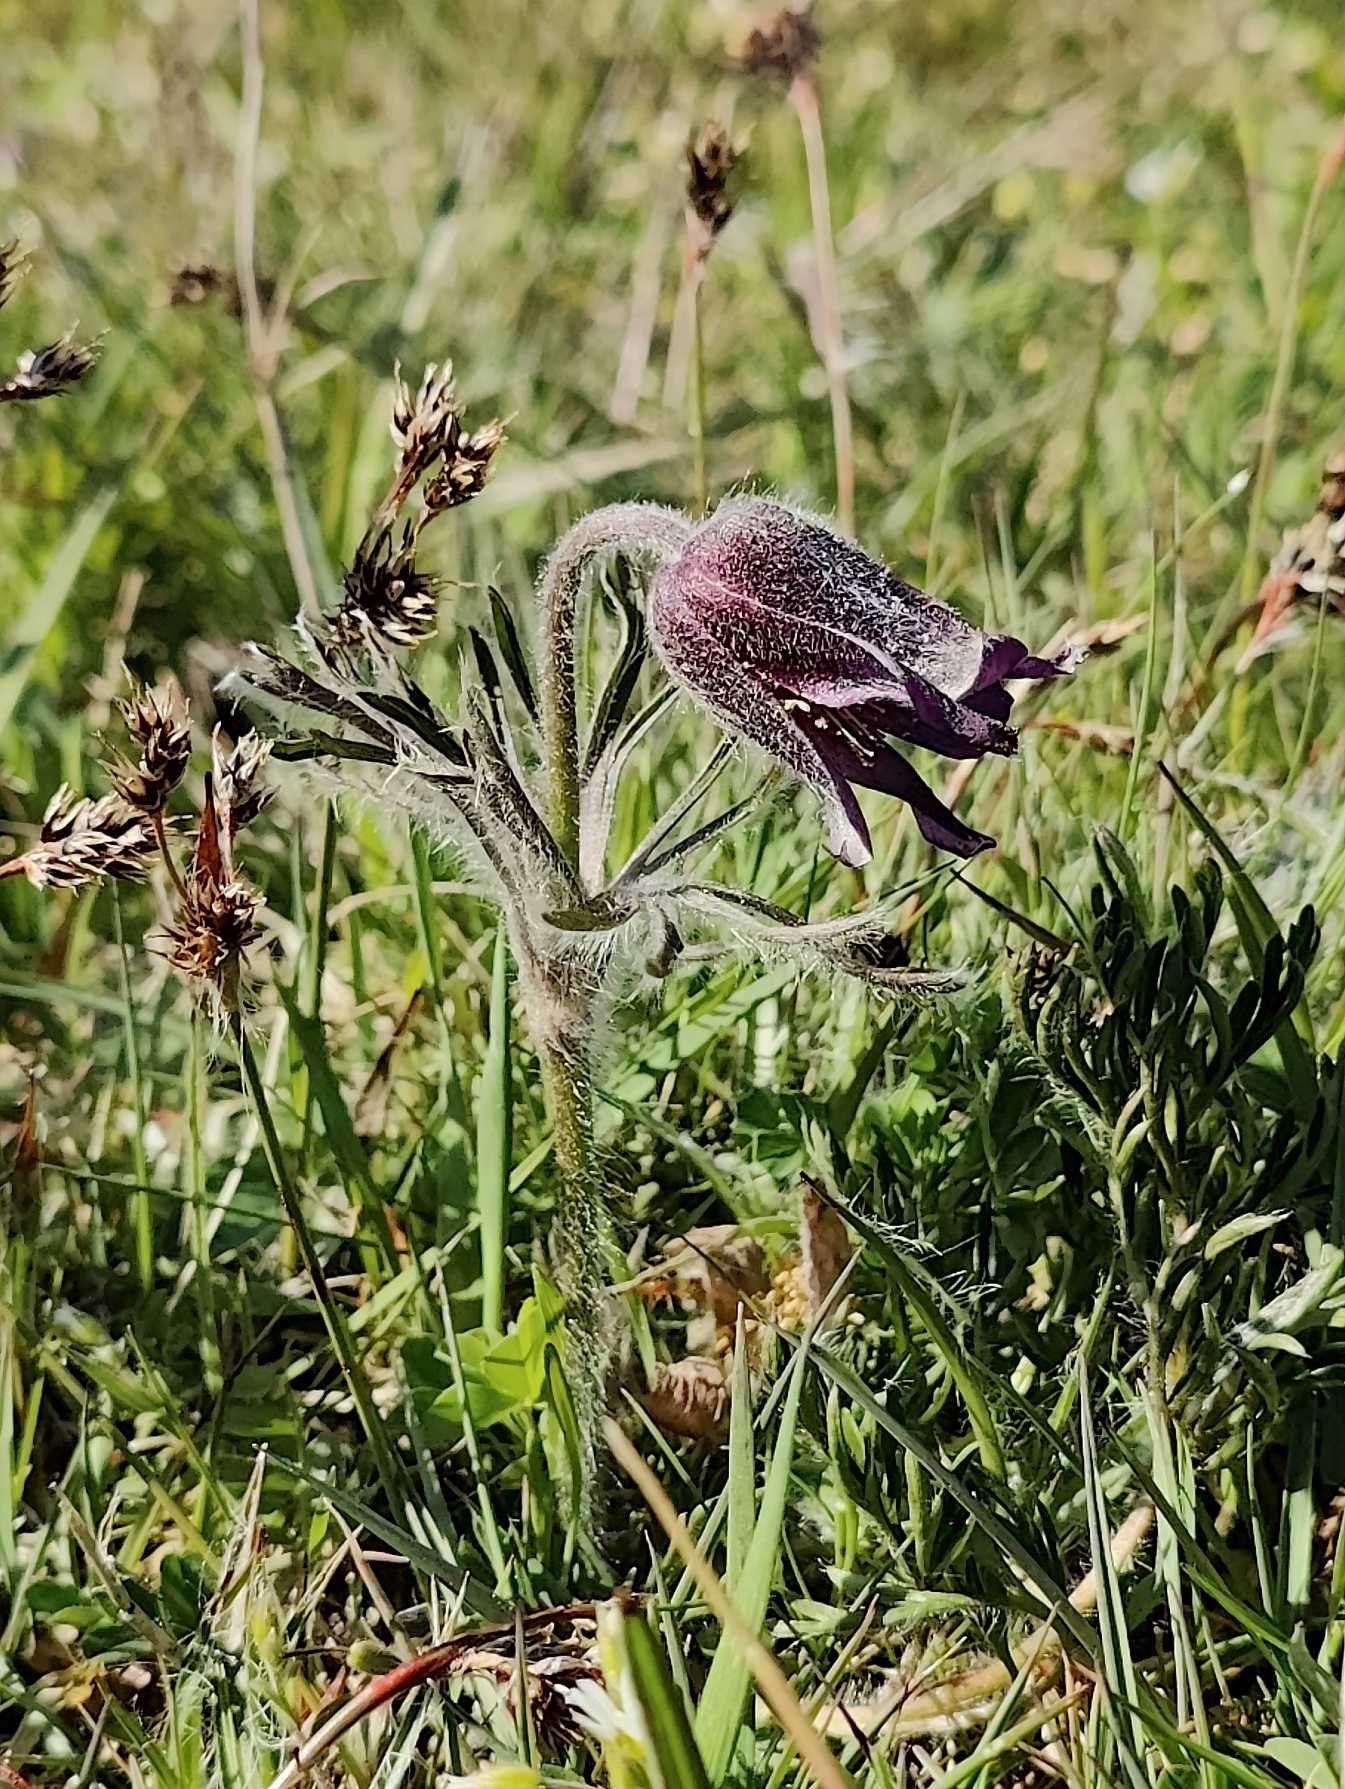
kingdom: Plantae
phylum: Tracheophyta
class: Magnoliopsida
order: Ranunculales
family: Ranunculaceae
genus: Pulsatilla
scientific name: Pulsatilla pratensis
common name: Nikkende kobjælde
